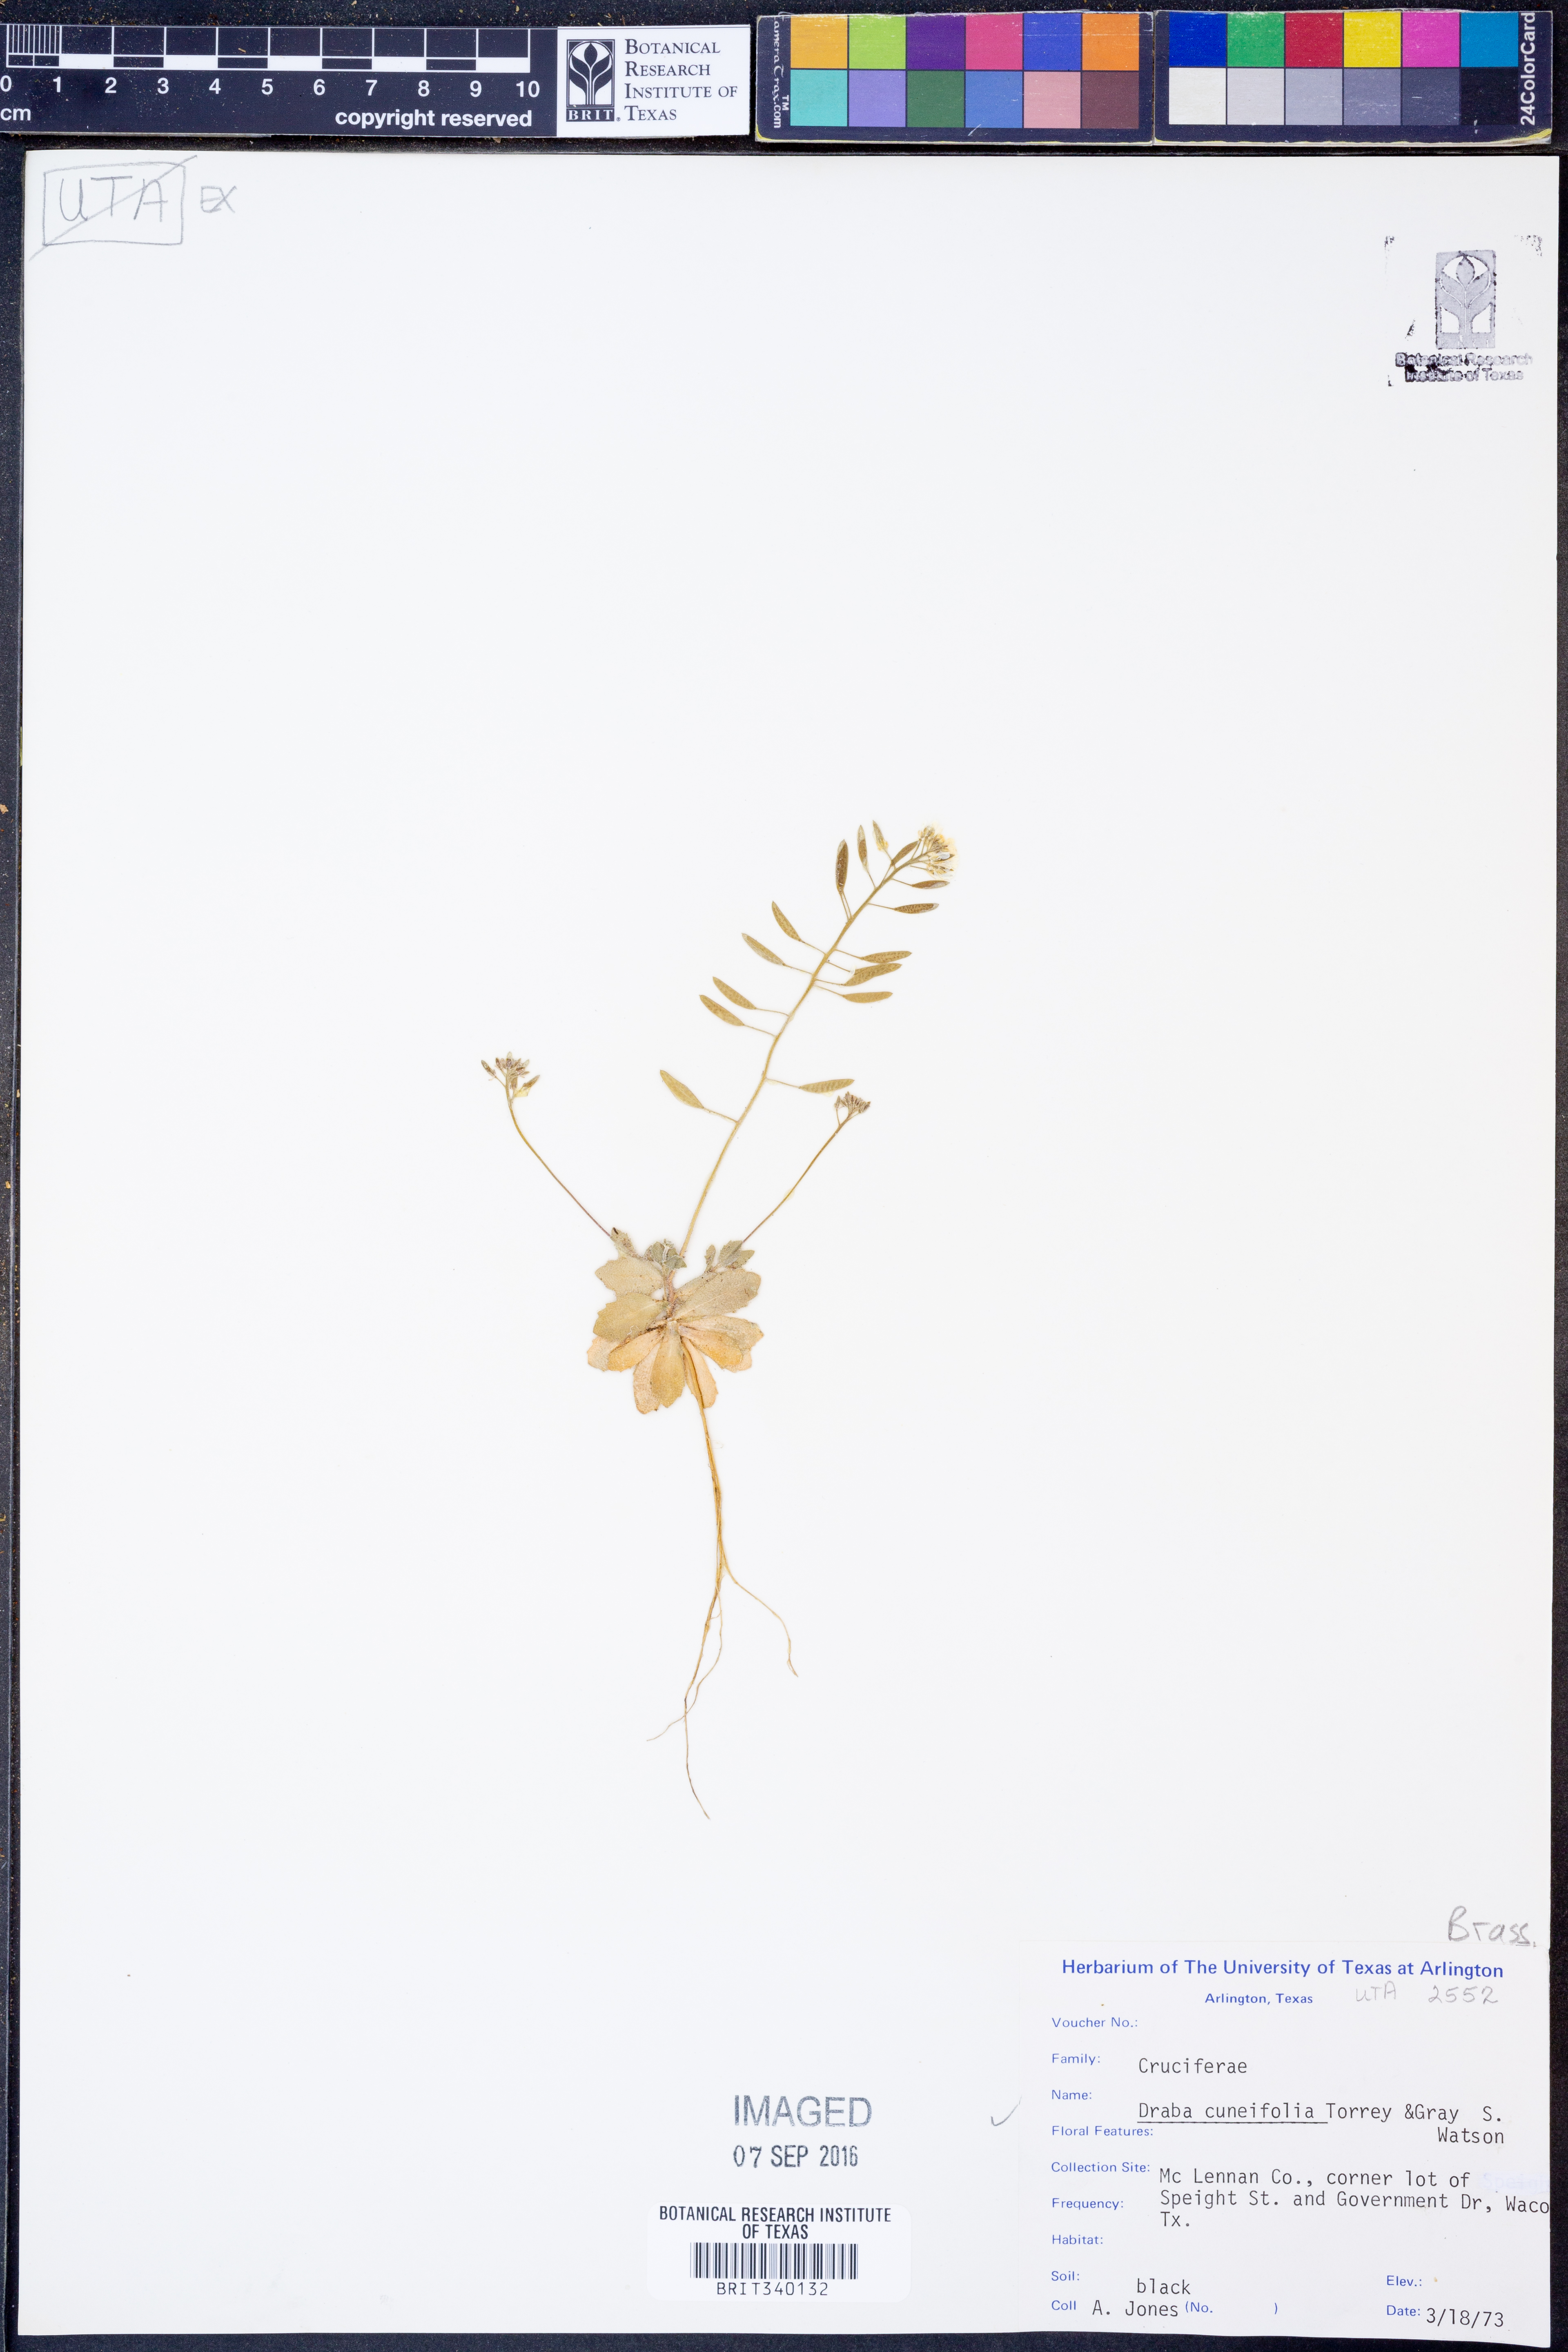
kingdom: Plantae
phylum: Tracheophyta
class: Magnoliopsida
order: Brassicales
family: Brassicaceae
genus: Tomostima
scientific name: Tomostima cuneifolia
